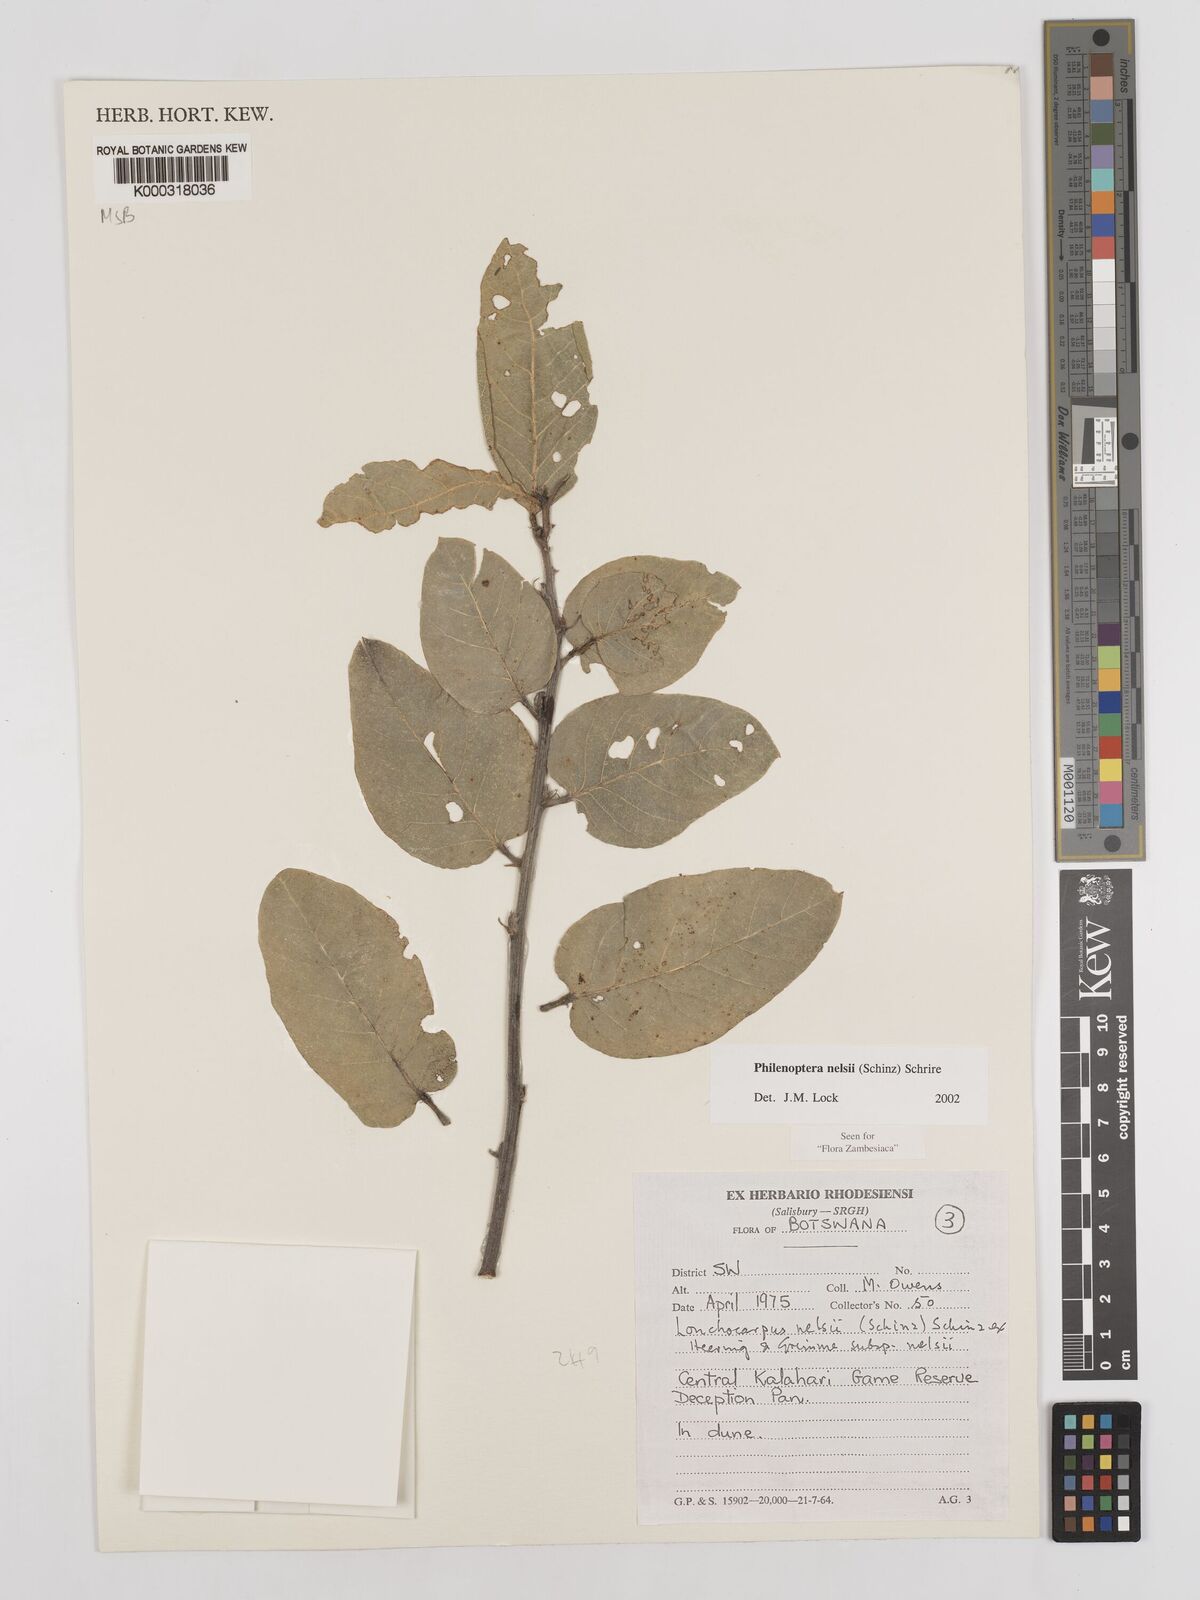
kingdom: Plantae
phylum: Tracheophyta
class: Magnoliopsida
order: Fabales
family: Fabaceae
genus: Philenoptera
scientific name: Philenoptera nelsii
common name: Kalahari apple-leaf
